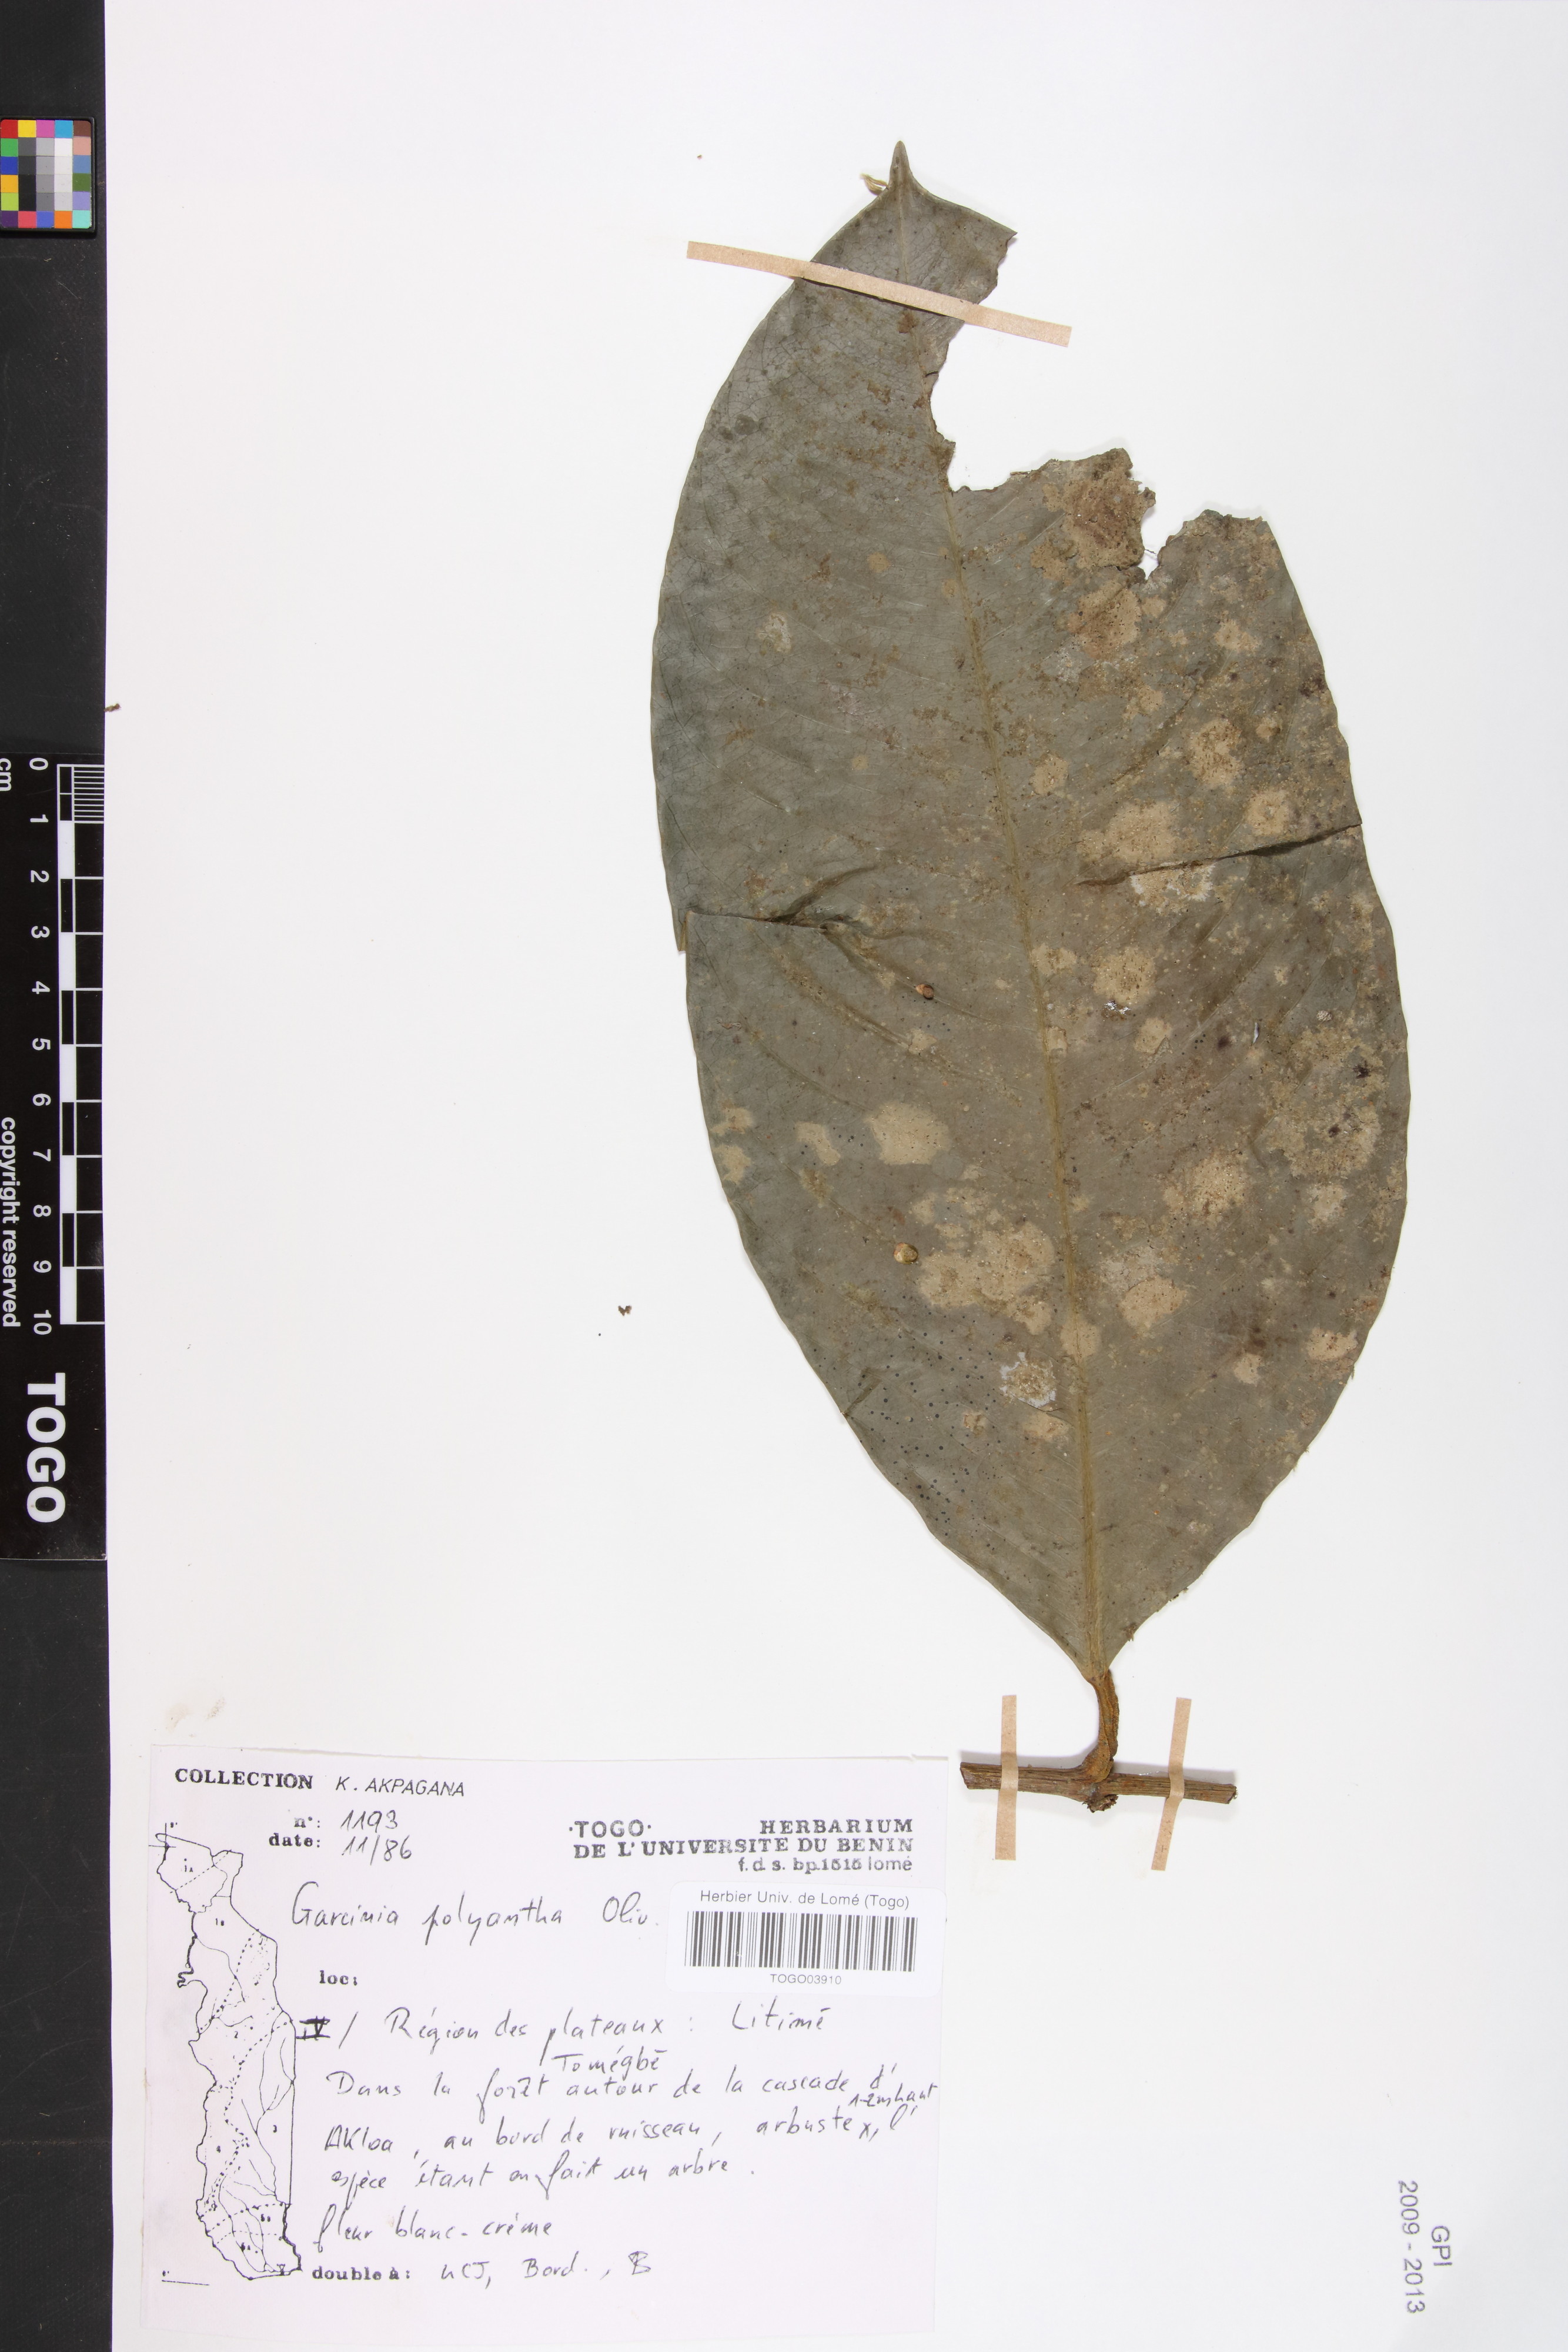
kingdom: Plantae
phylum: Tracheophyta
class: Magnoliopsida
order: Malpighiales
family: Clusiaceae
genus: Garcinia
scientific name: Garcinia smeathmannii
